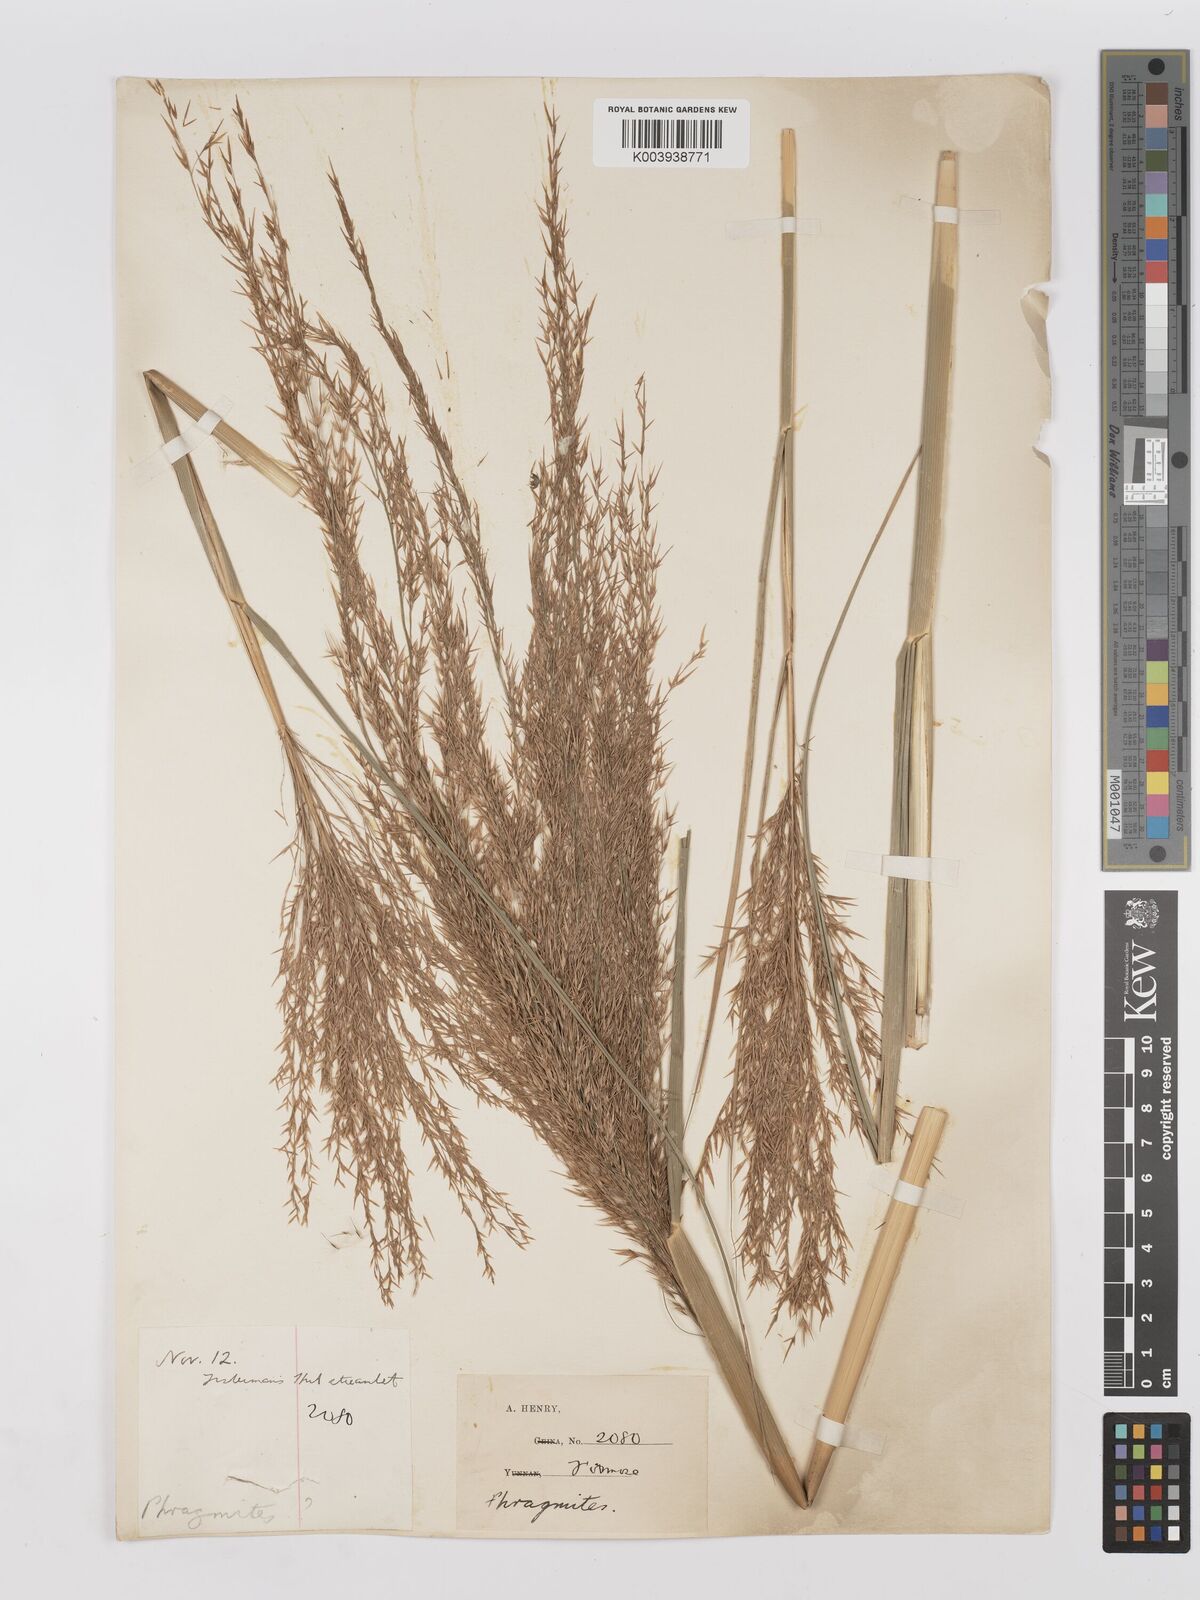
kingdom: Plantae
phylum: Tracheophyta
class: Liliopsida
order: Poales
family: Poaceae
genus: Phragmites
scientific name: Phragmites karka
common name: Tropical reed
